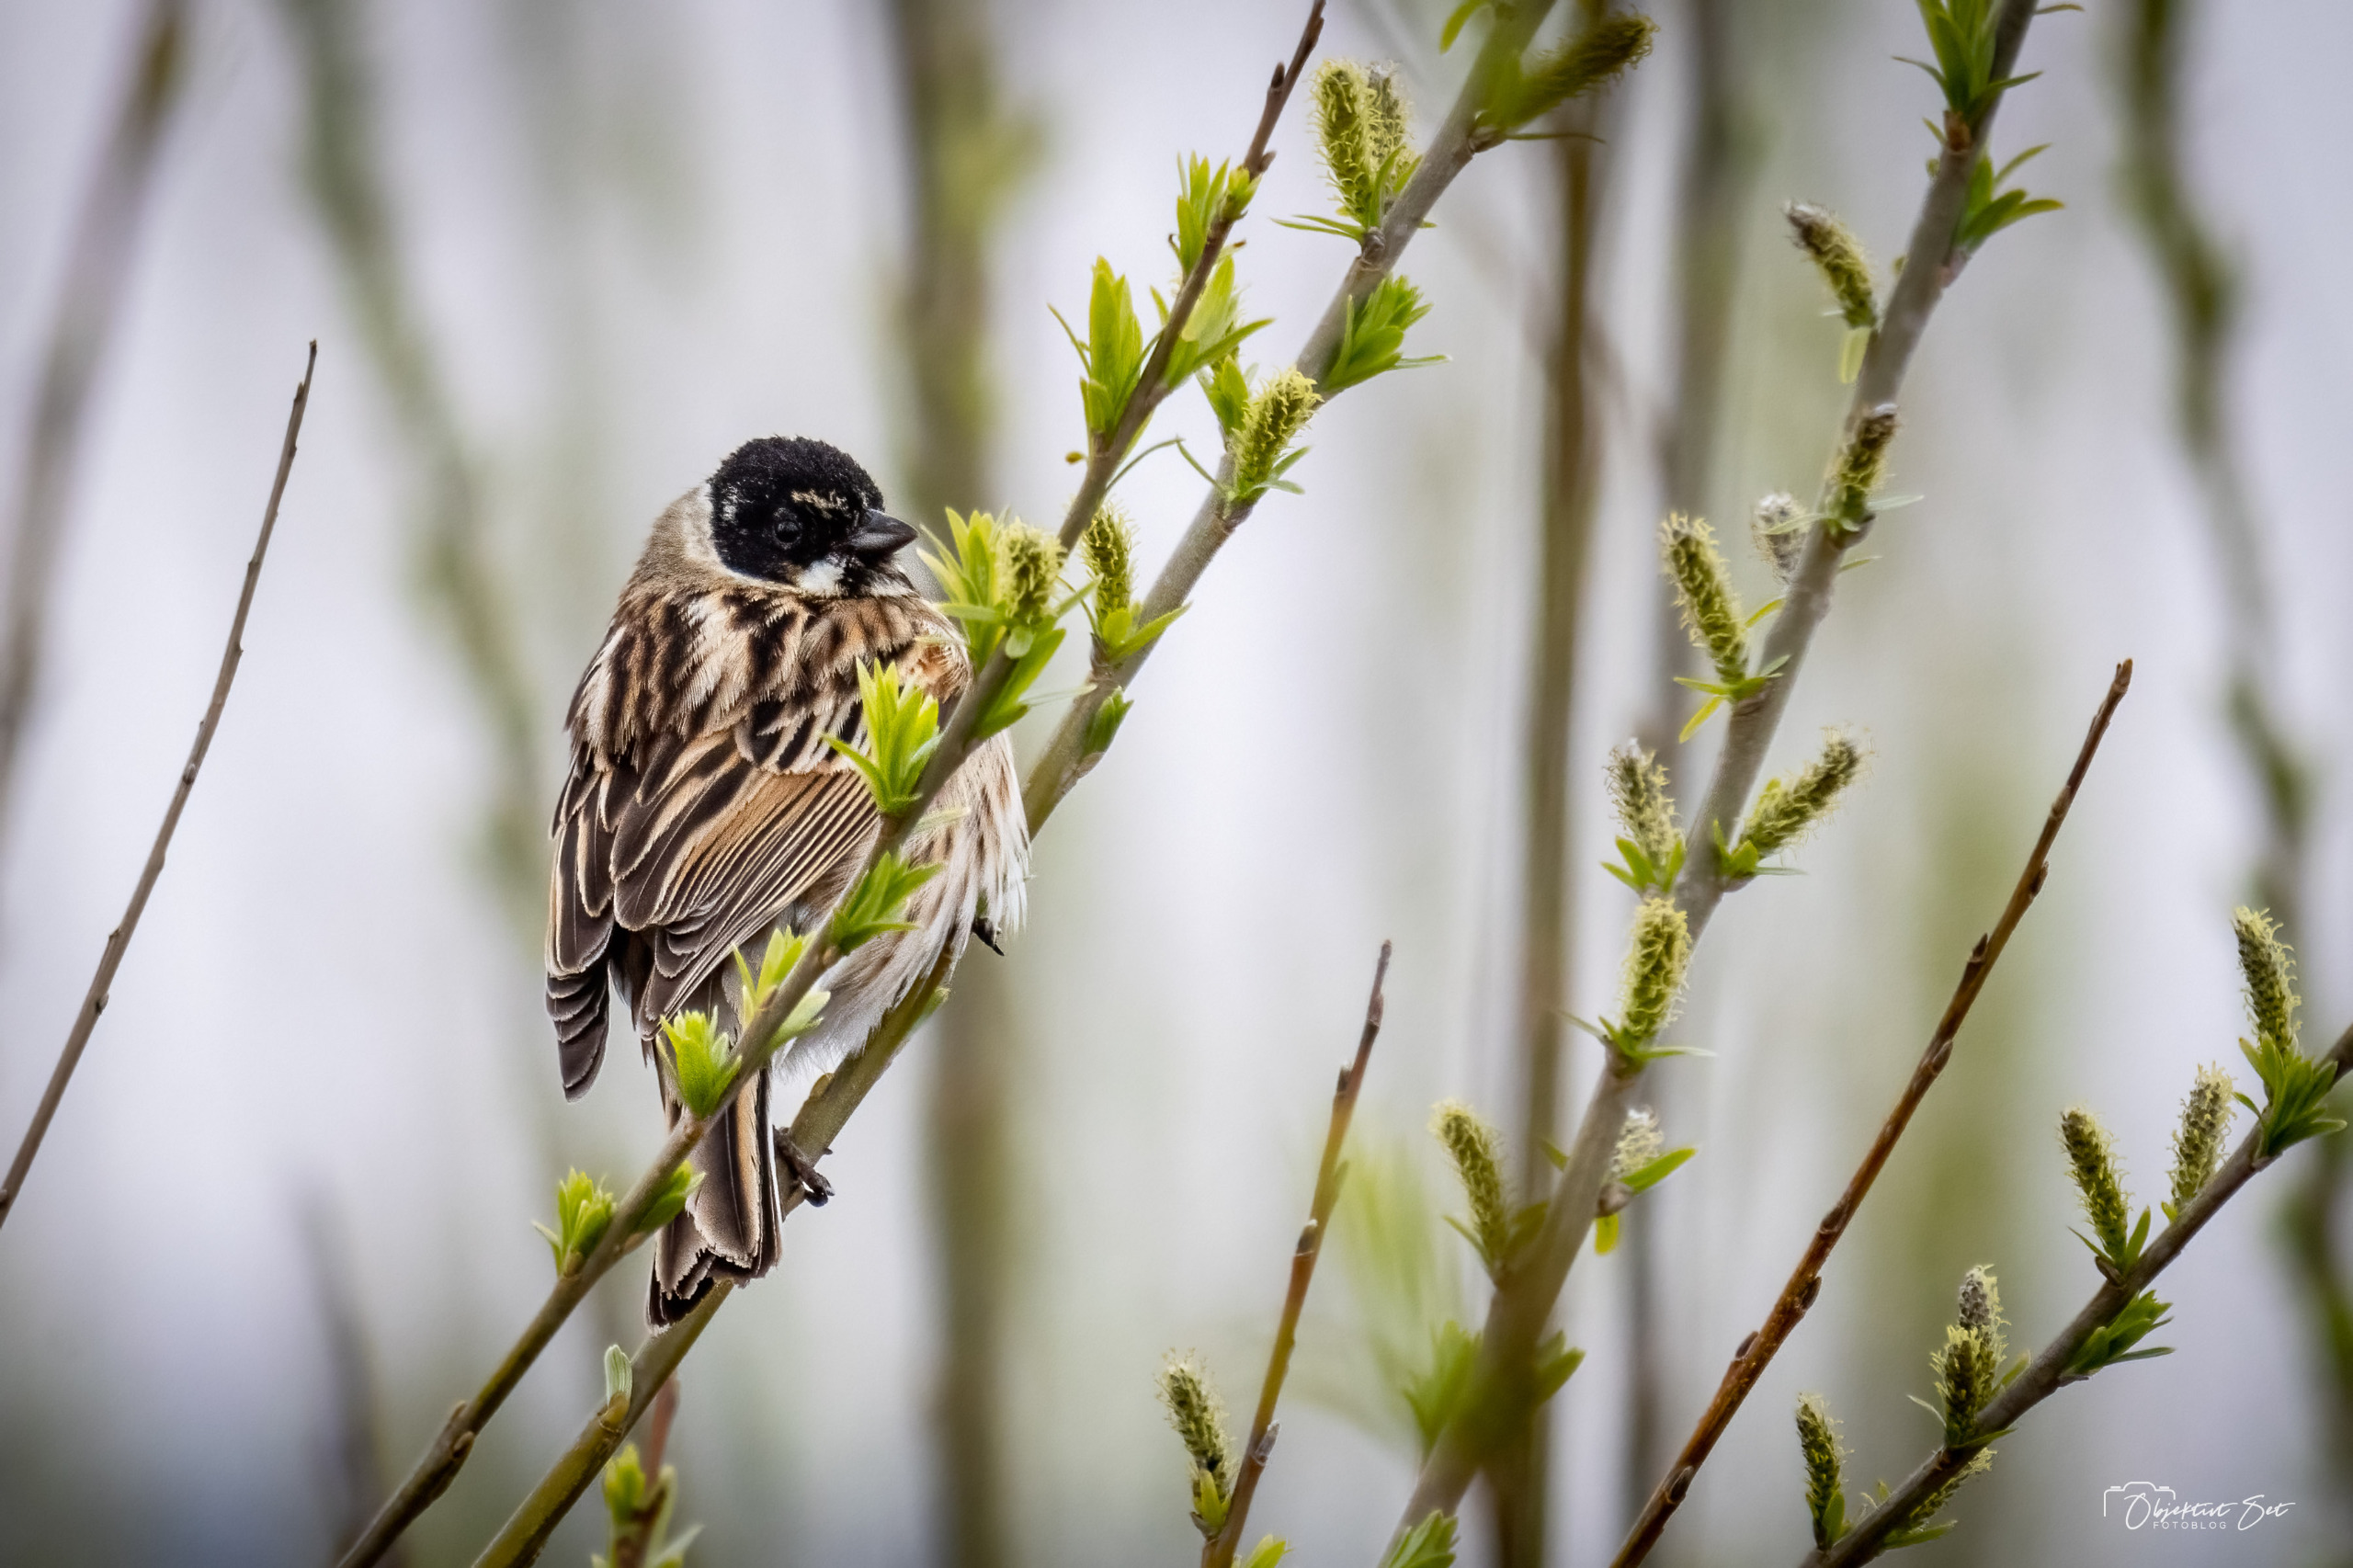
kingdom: Animalia
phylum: Chordata
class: Aves
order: Passeriformes
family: Emberizidae
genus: Emberiza
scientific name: Emberiza schoeniclus
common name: Rørspurv
